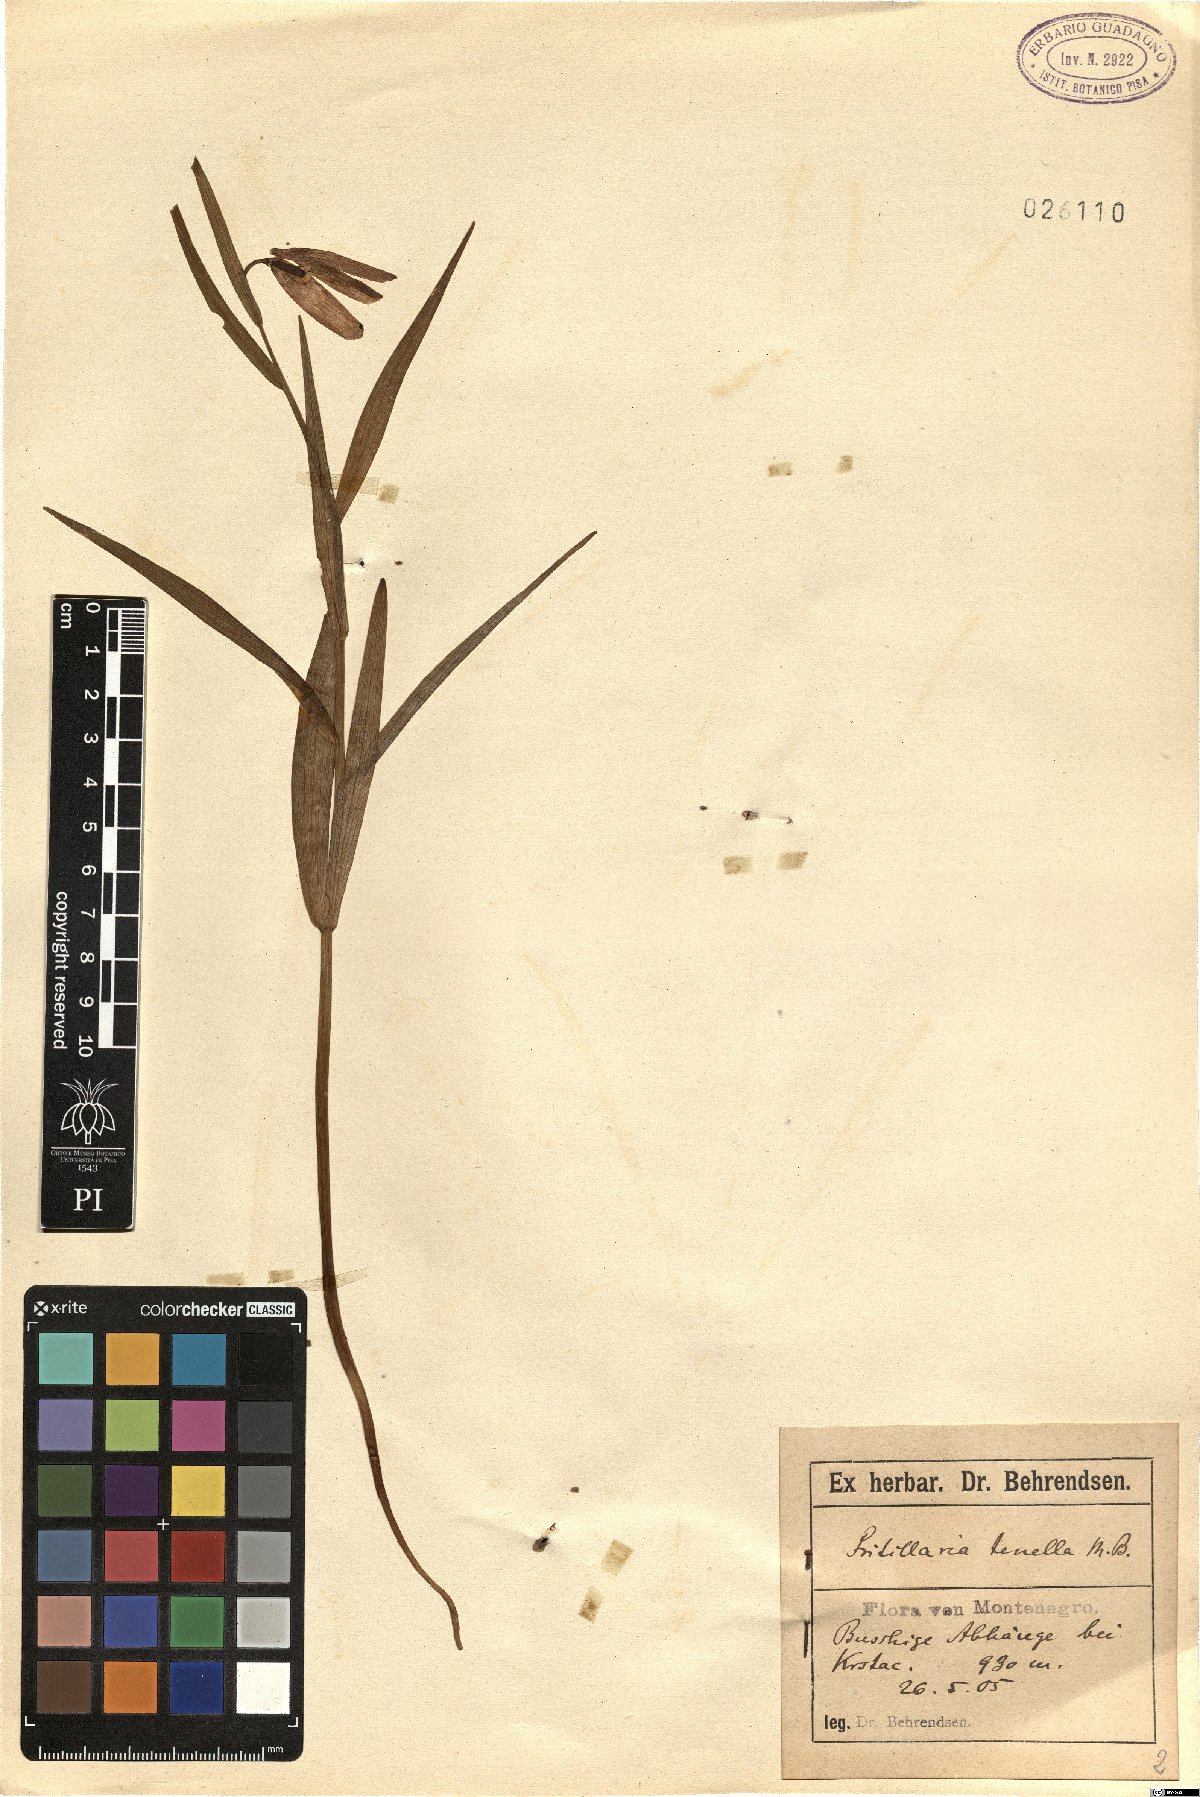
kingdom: Plantae
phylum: Tracheophyta
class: Liliopsida
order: Liliales
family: Liliaceae
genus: Fritillaria
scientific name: Fritillaria orientalis
